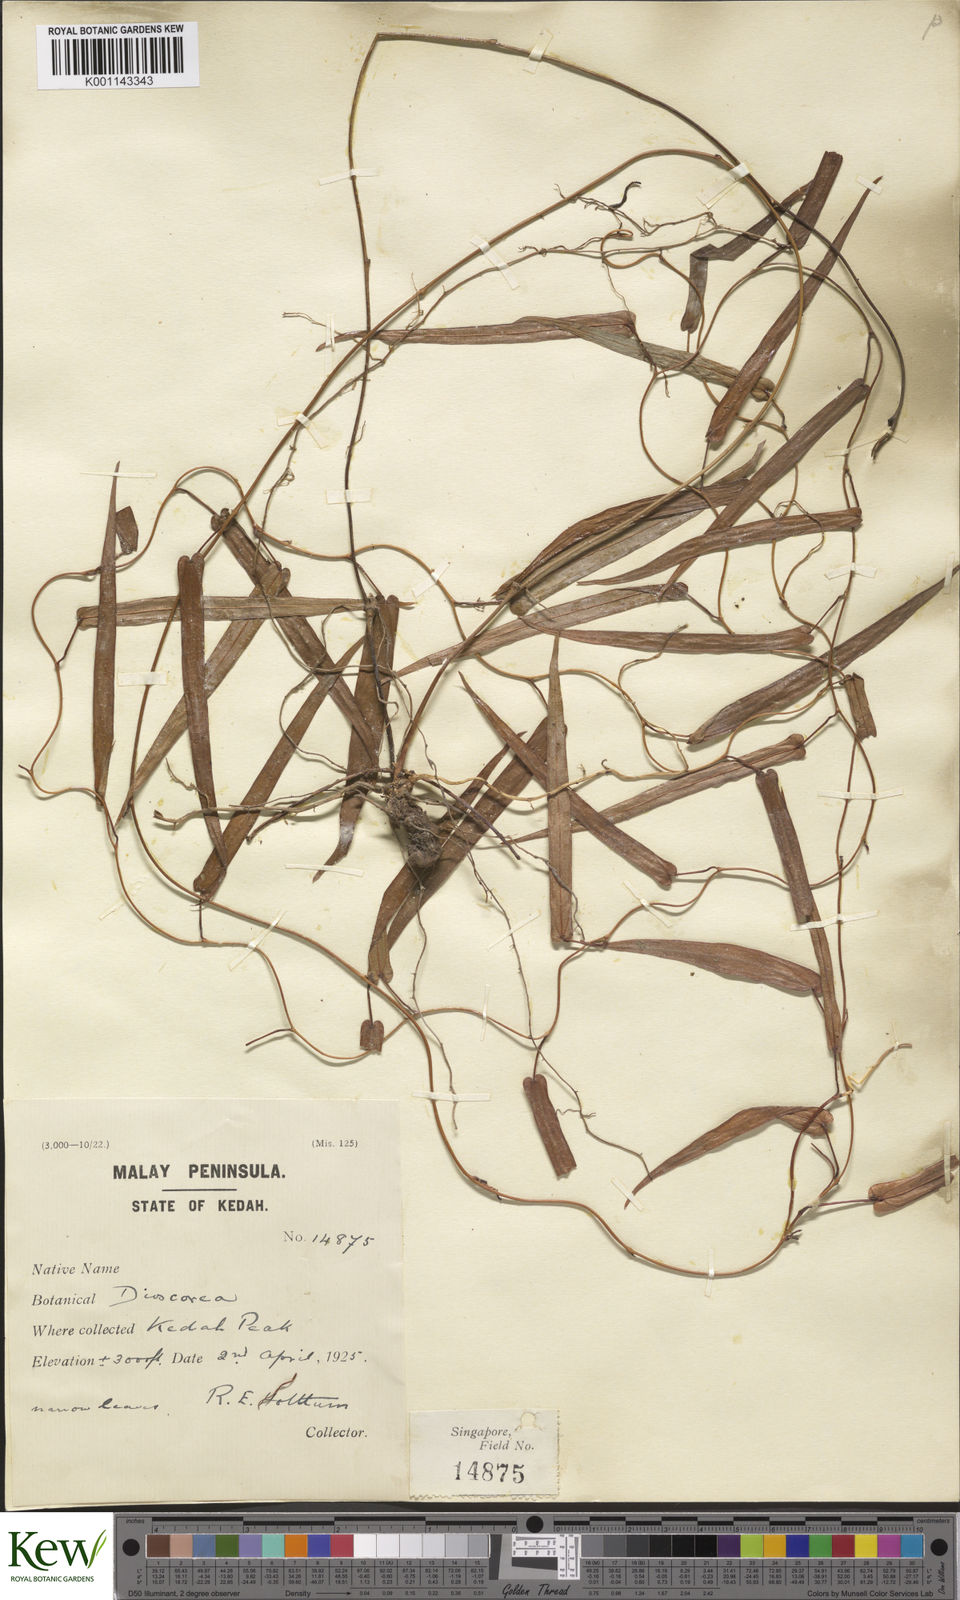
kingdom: Plantae
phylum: Tracheophyta
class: Liliopsida
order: Dioscoreales
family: Dioscoreaceae
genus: Dioscorea
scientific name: Dioscorea kingii
